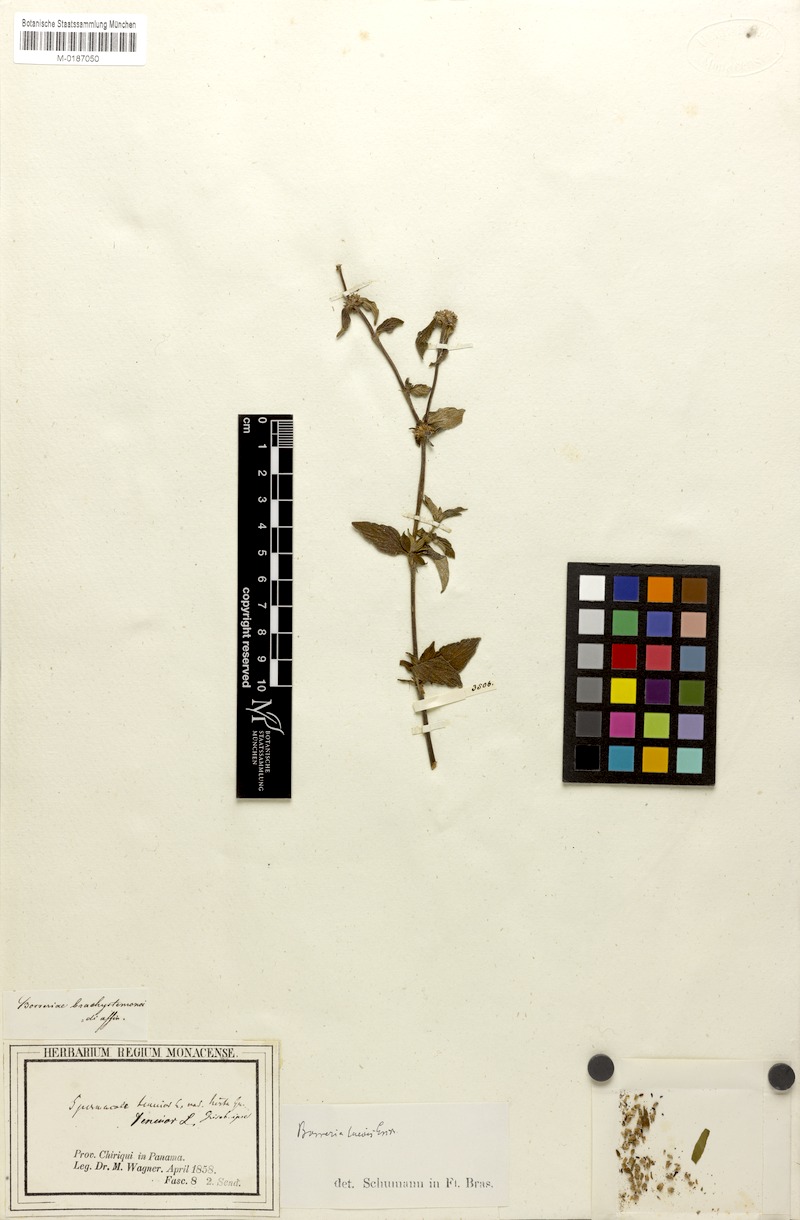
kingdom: Plantae
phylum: Tracheophyta
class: Magnoliopsida
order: Gentianales
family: Rubiaceae
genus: Spermacoce
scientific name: Spermacoce tenuior
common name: River false buttonweed
